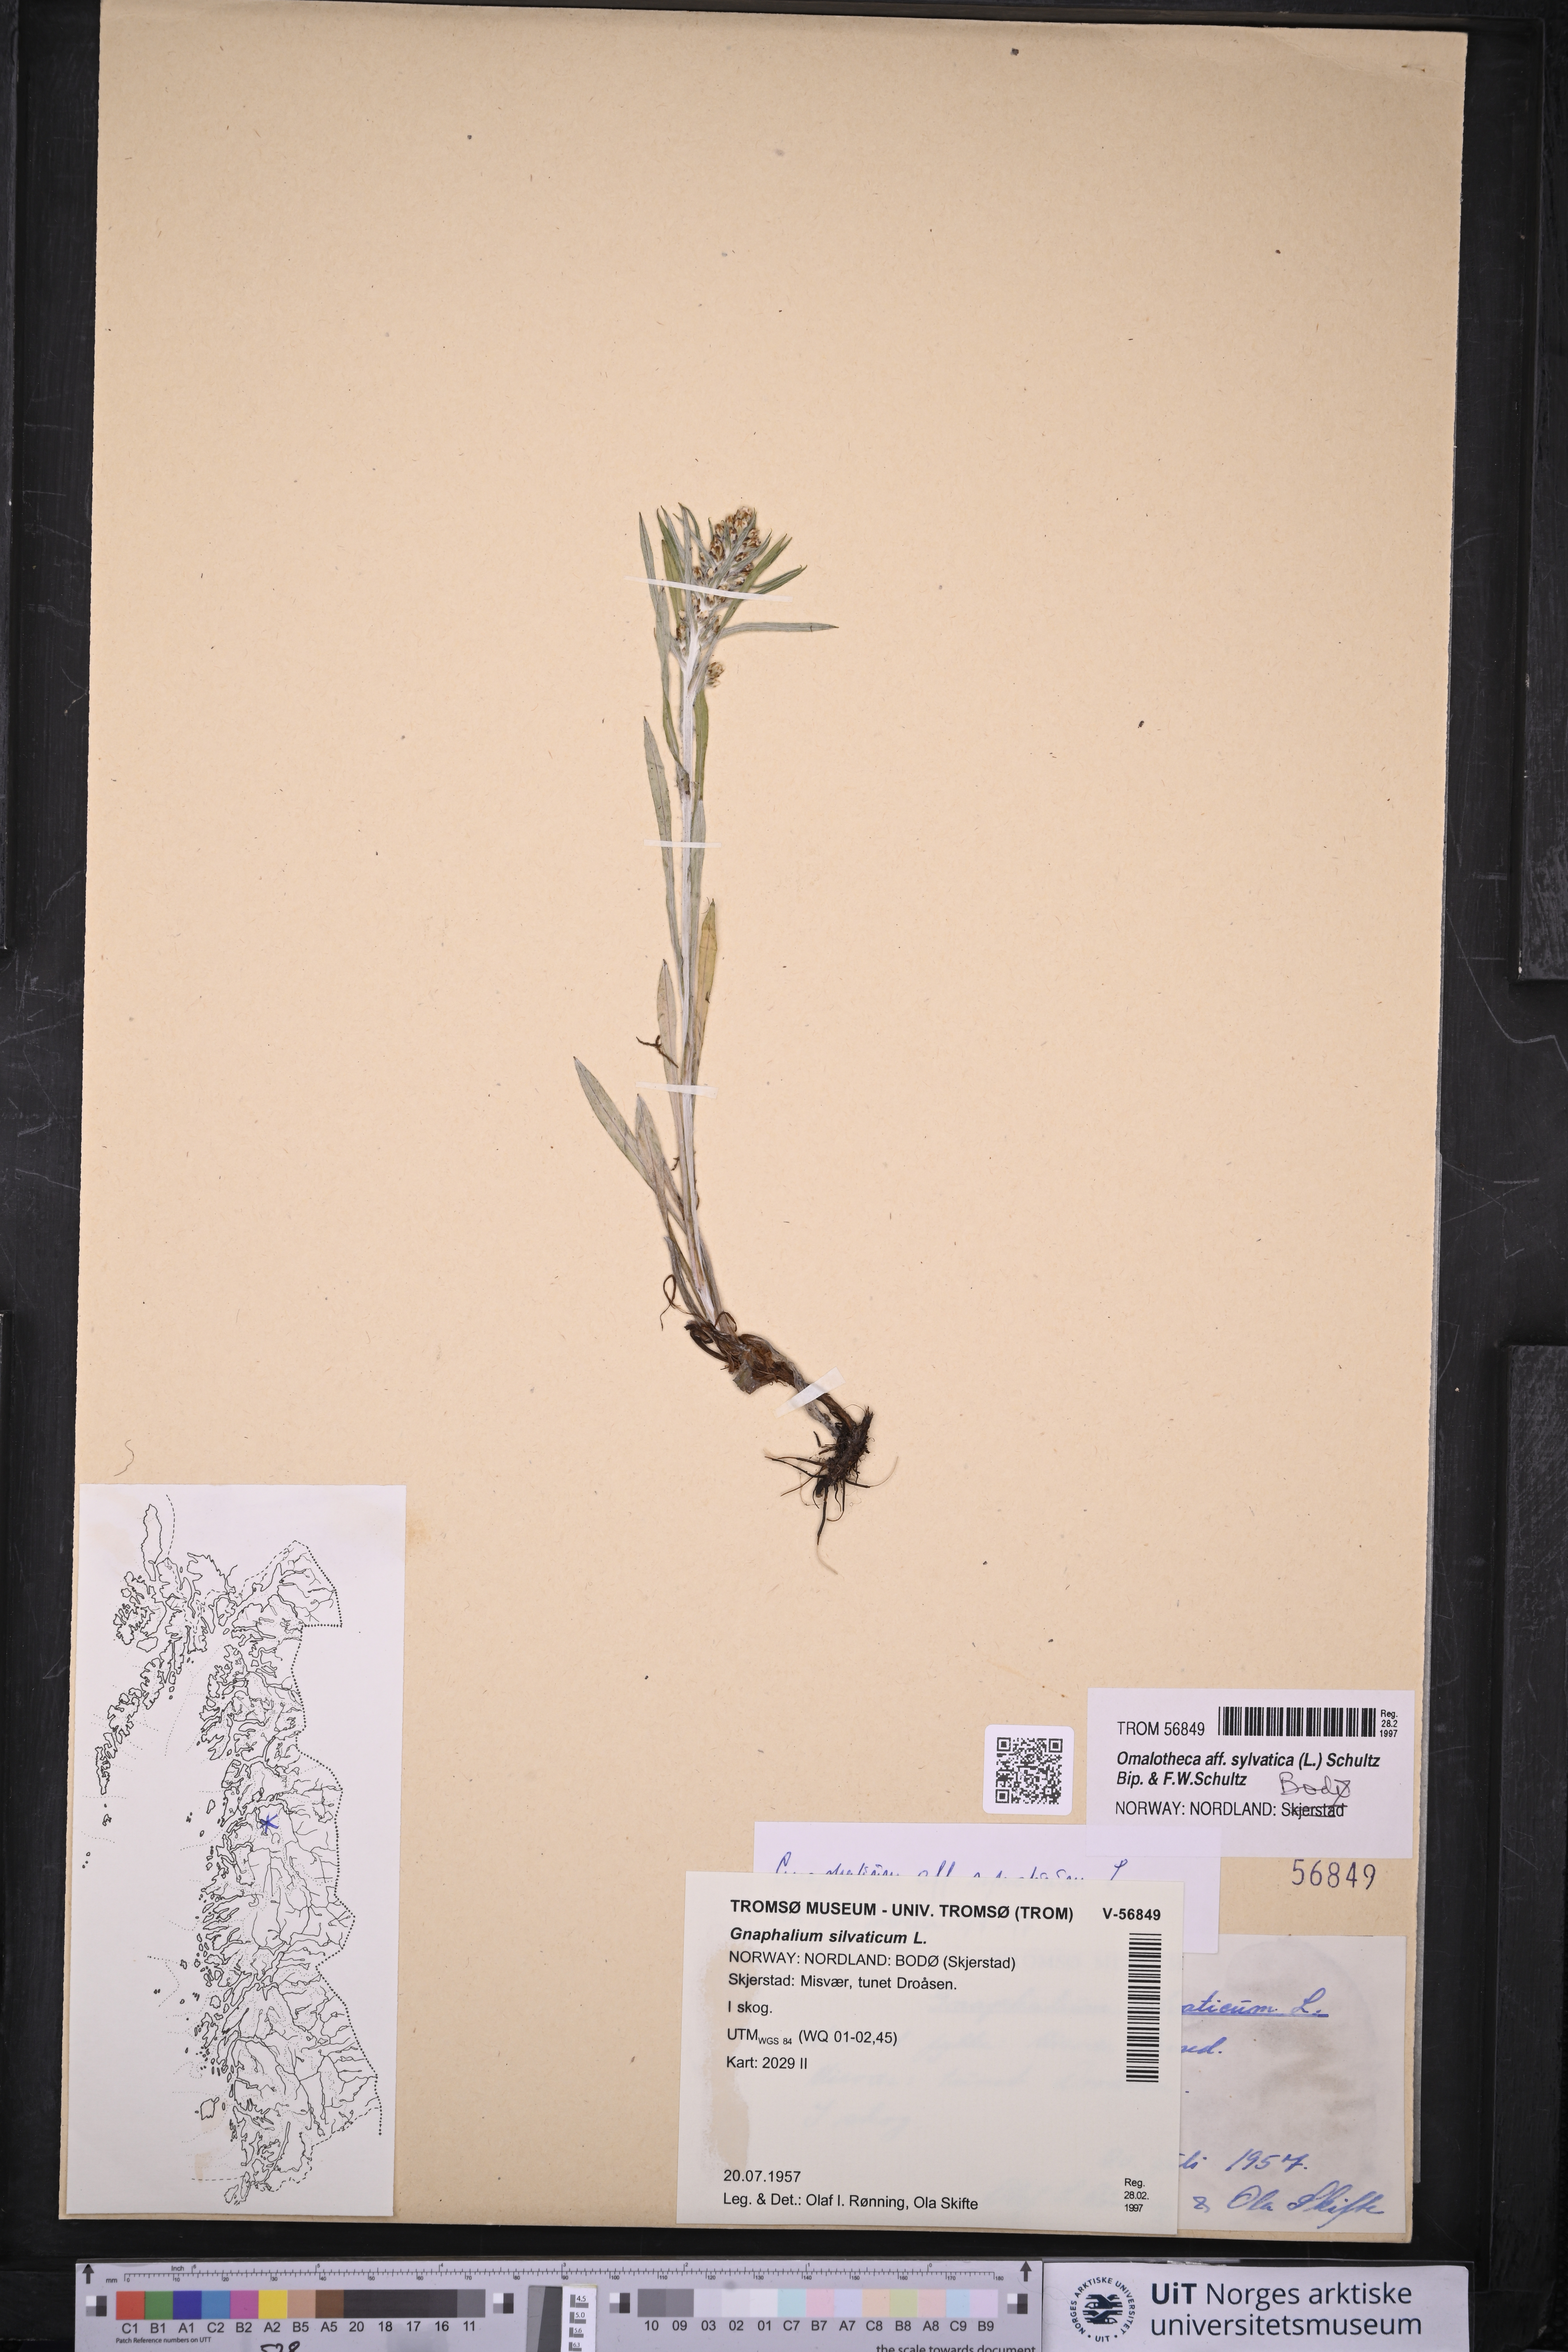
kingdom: Plantae
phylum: Tracheophyta
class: Magnoliopsida
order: Asterales
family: Asteraceae
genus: Omalotheca
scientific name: Omalotheca sylvatica
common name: Heath cudweed
